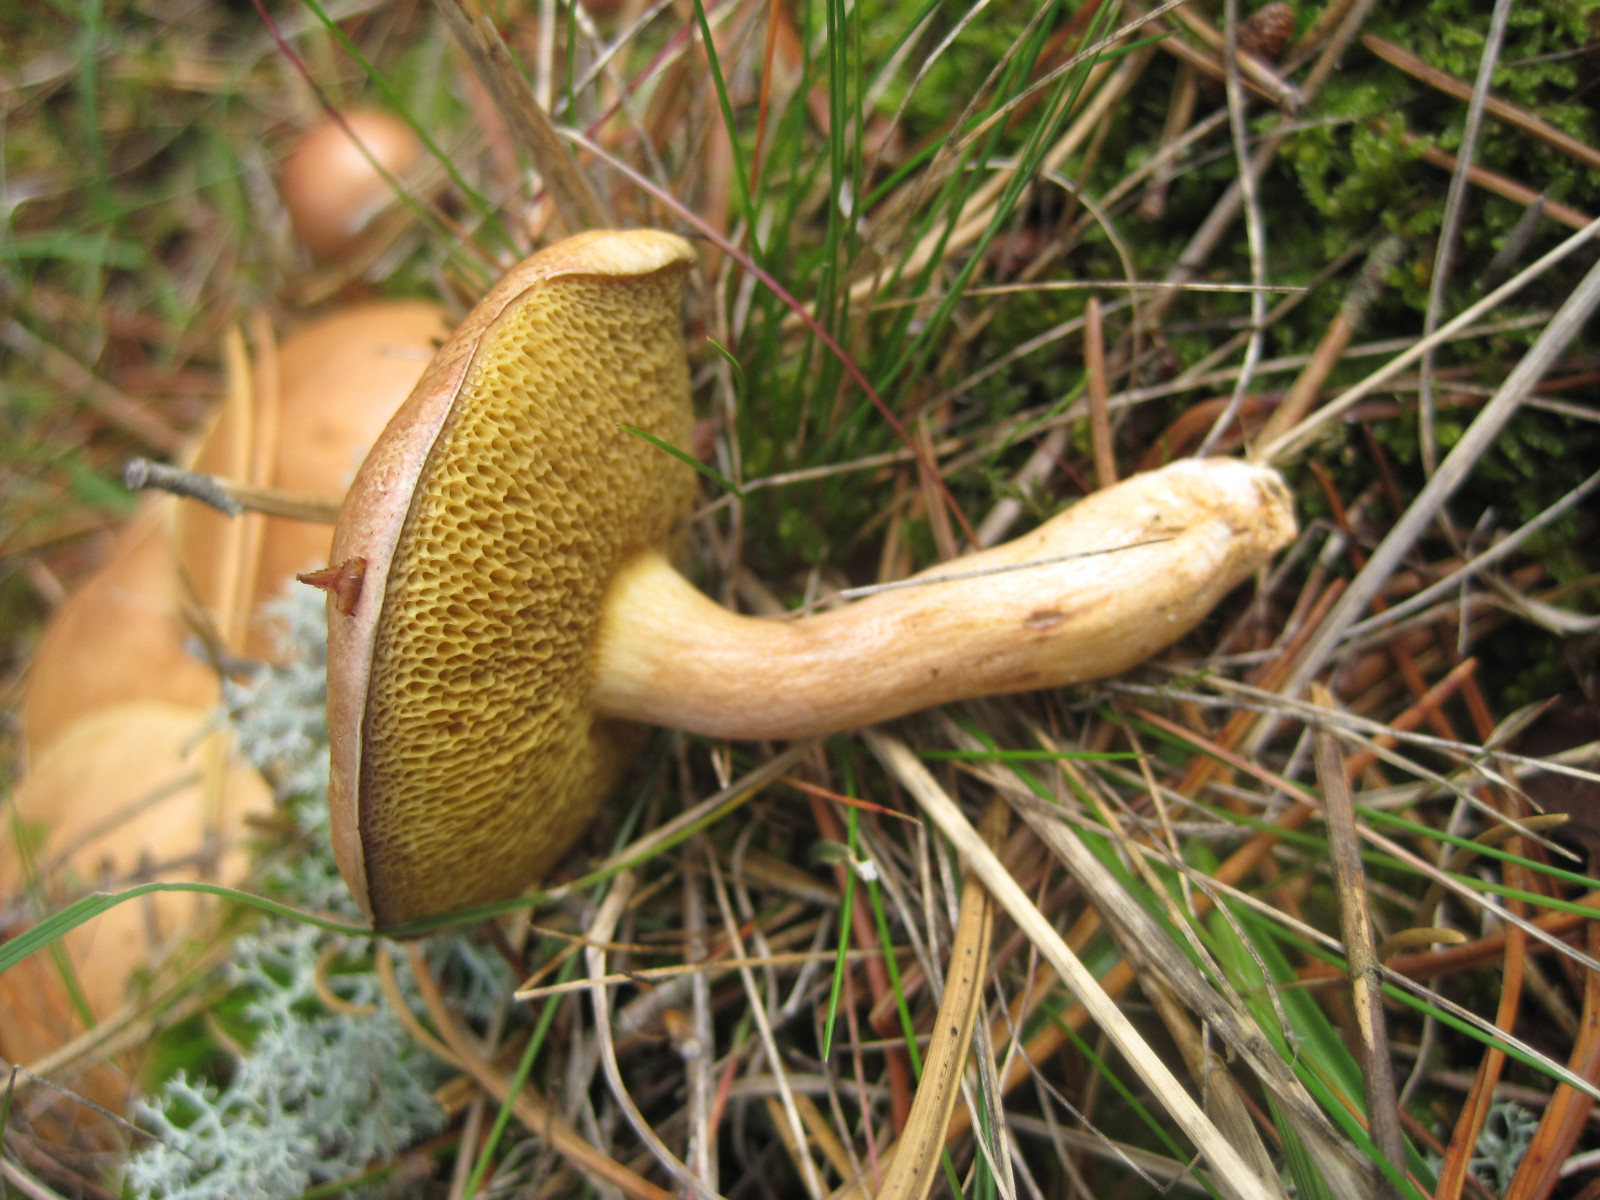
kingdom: Fungi
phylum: Basidiomycota
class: Agaricomycetes
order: Boletales
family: Suillaceae
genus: Suillus
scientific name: Suillus bovinus
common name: grovporet slimrørhat
